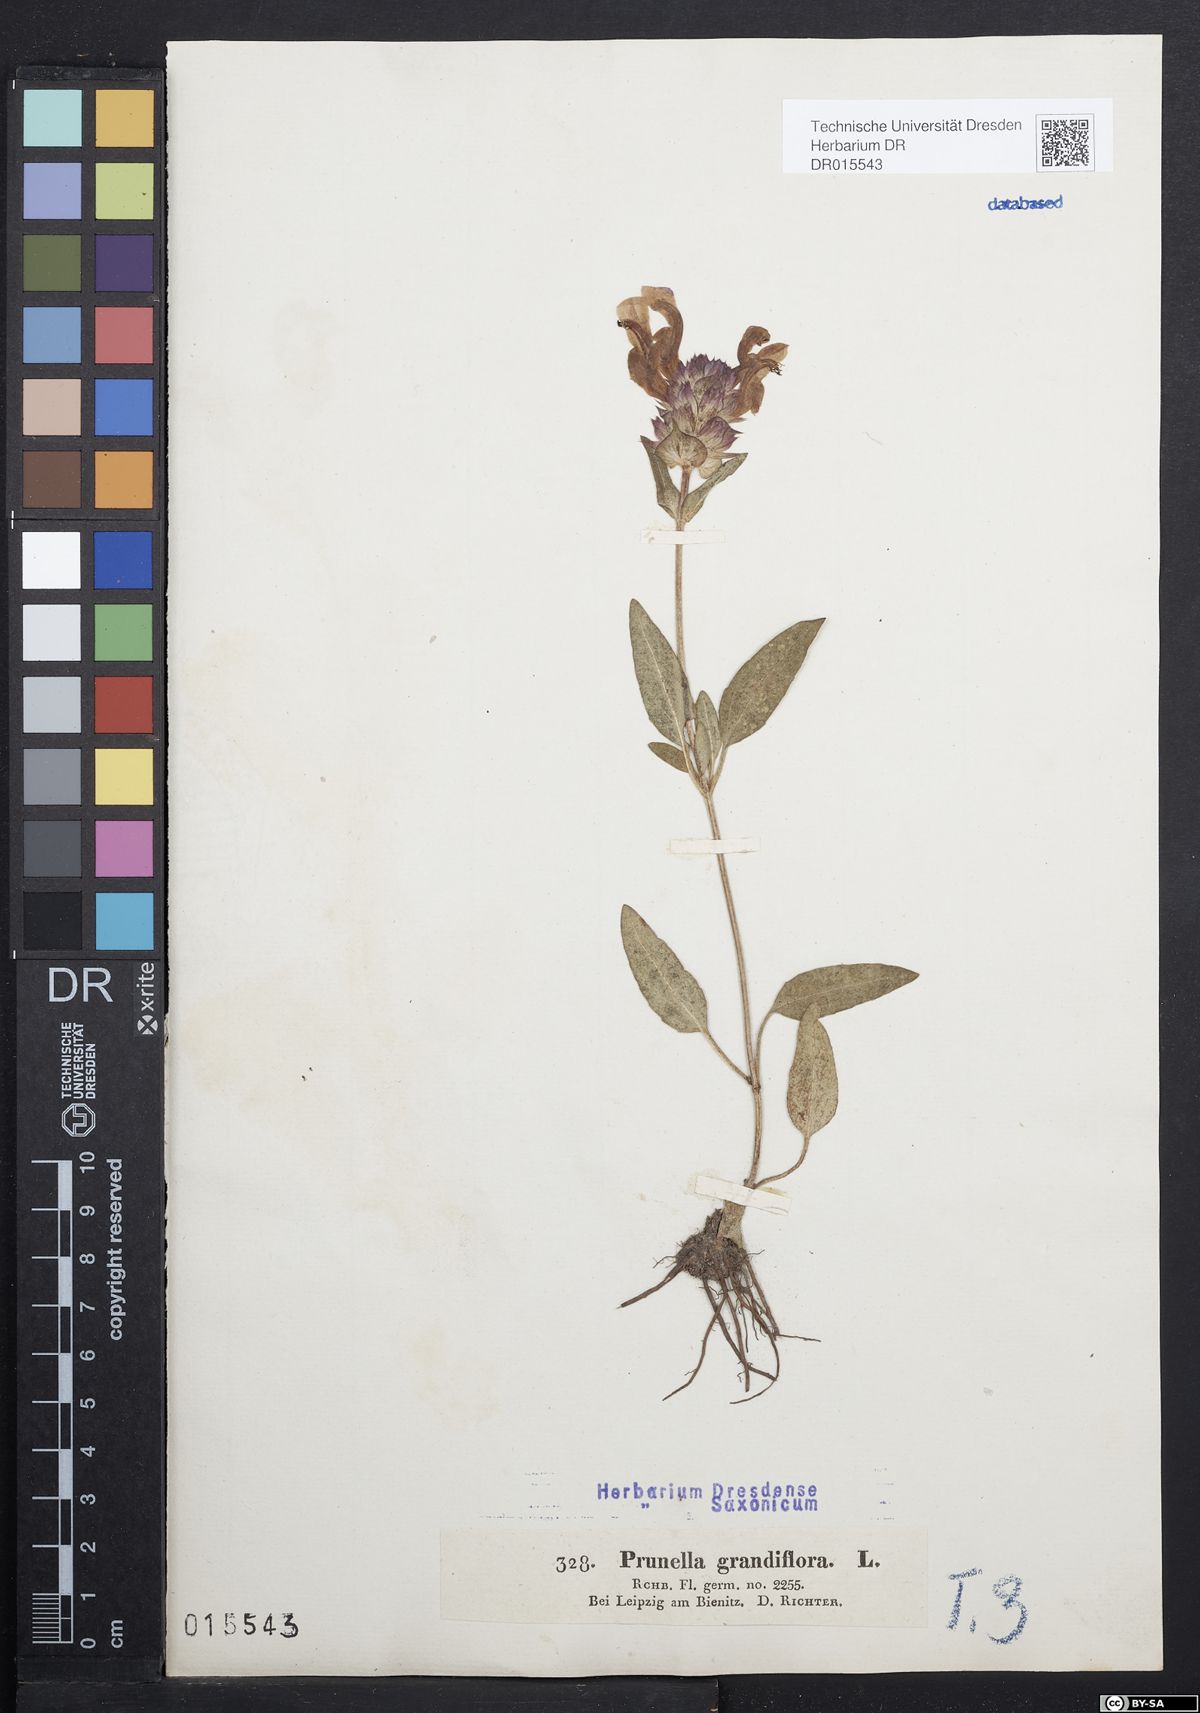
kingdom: Plantae
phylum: Tracheophyta
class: Magnoliopsida
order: Lamiales
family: Lamiaceae
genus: Prunella
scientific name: Prunella grandiflora
